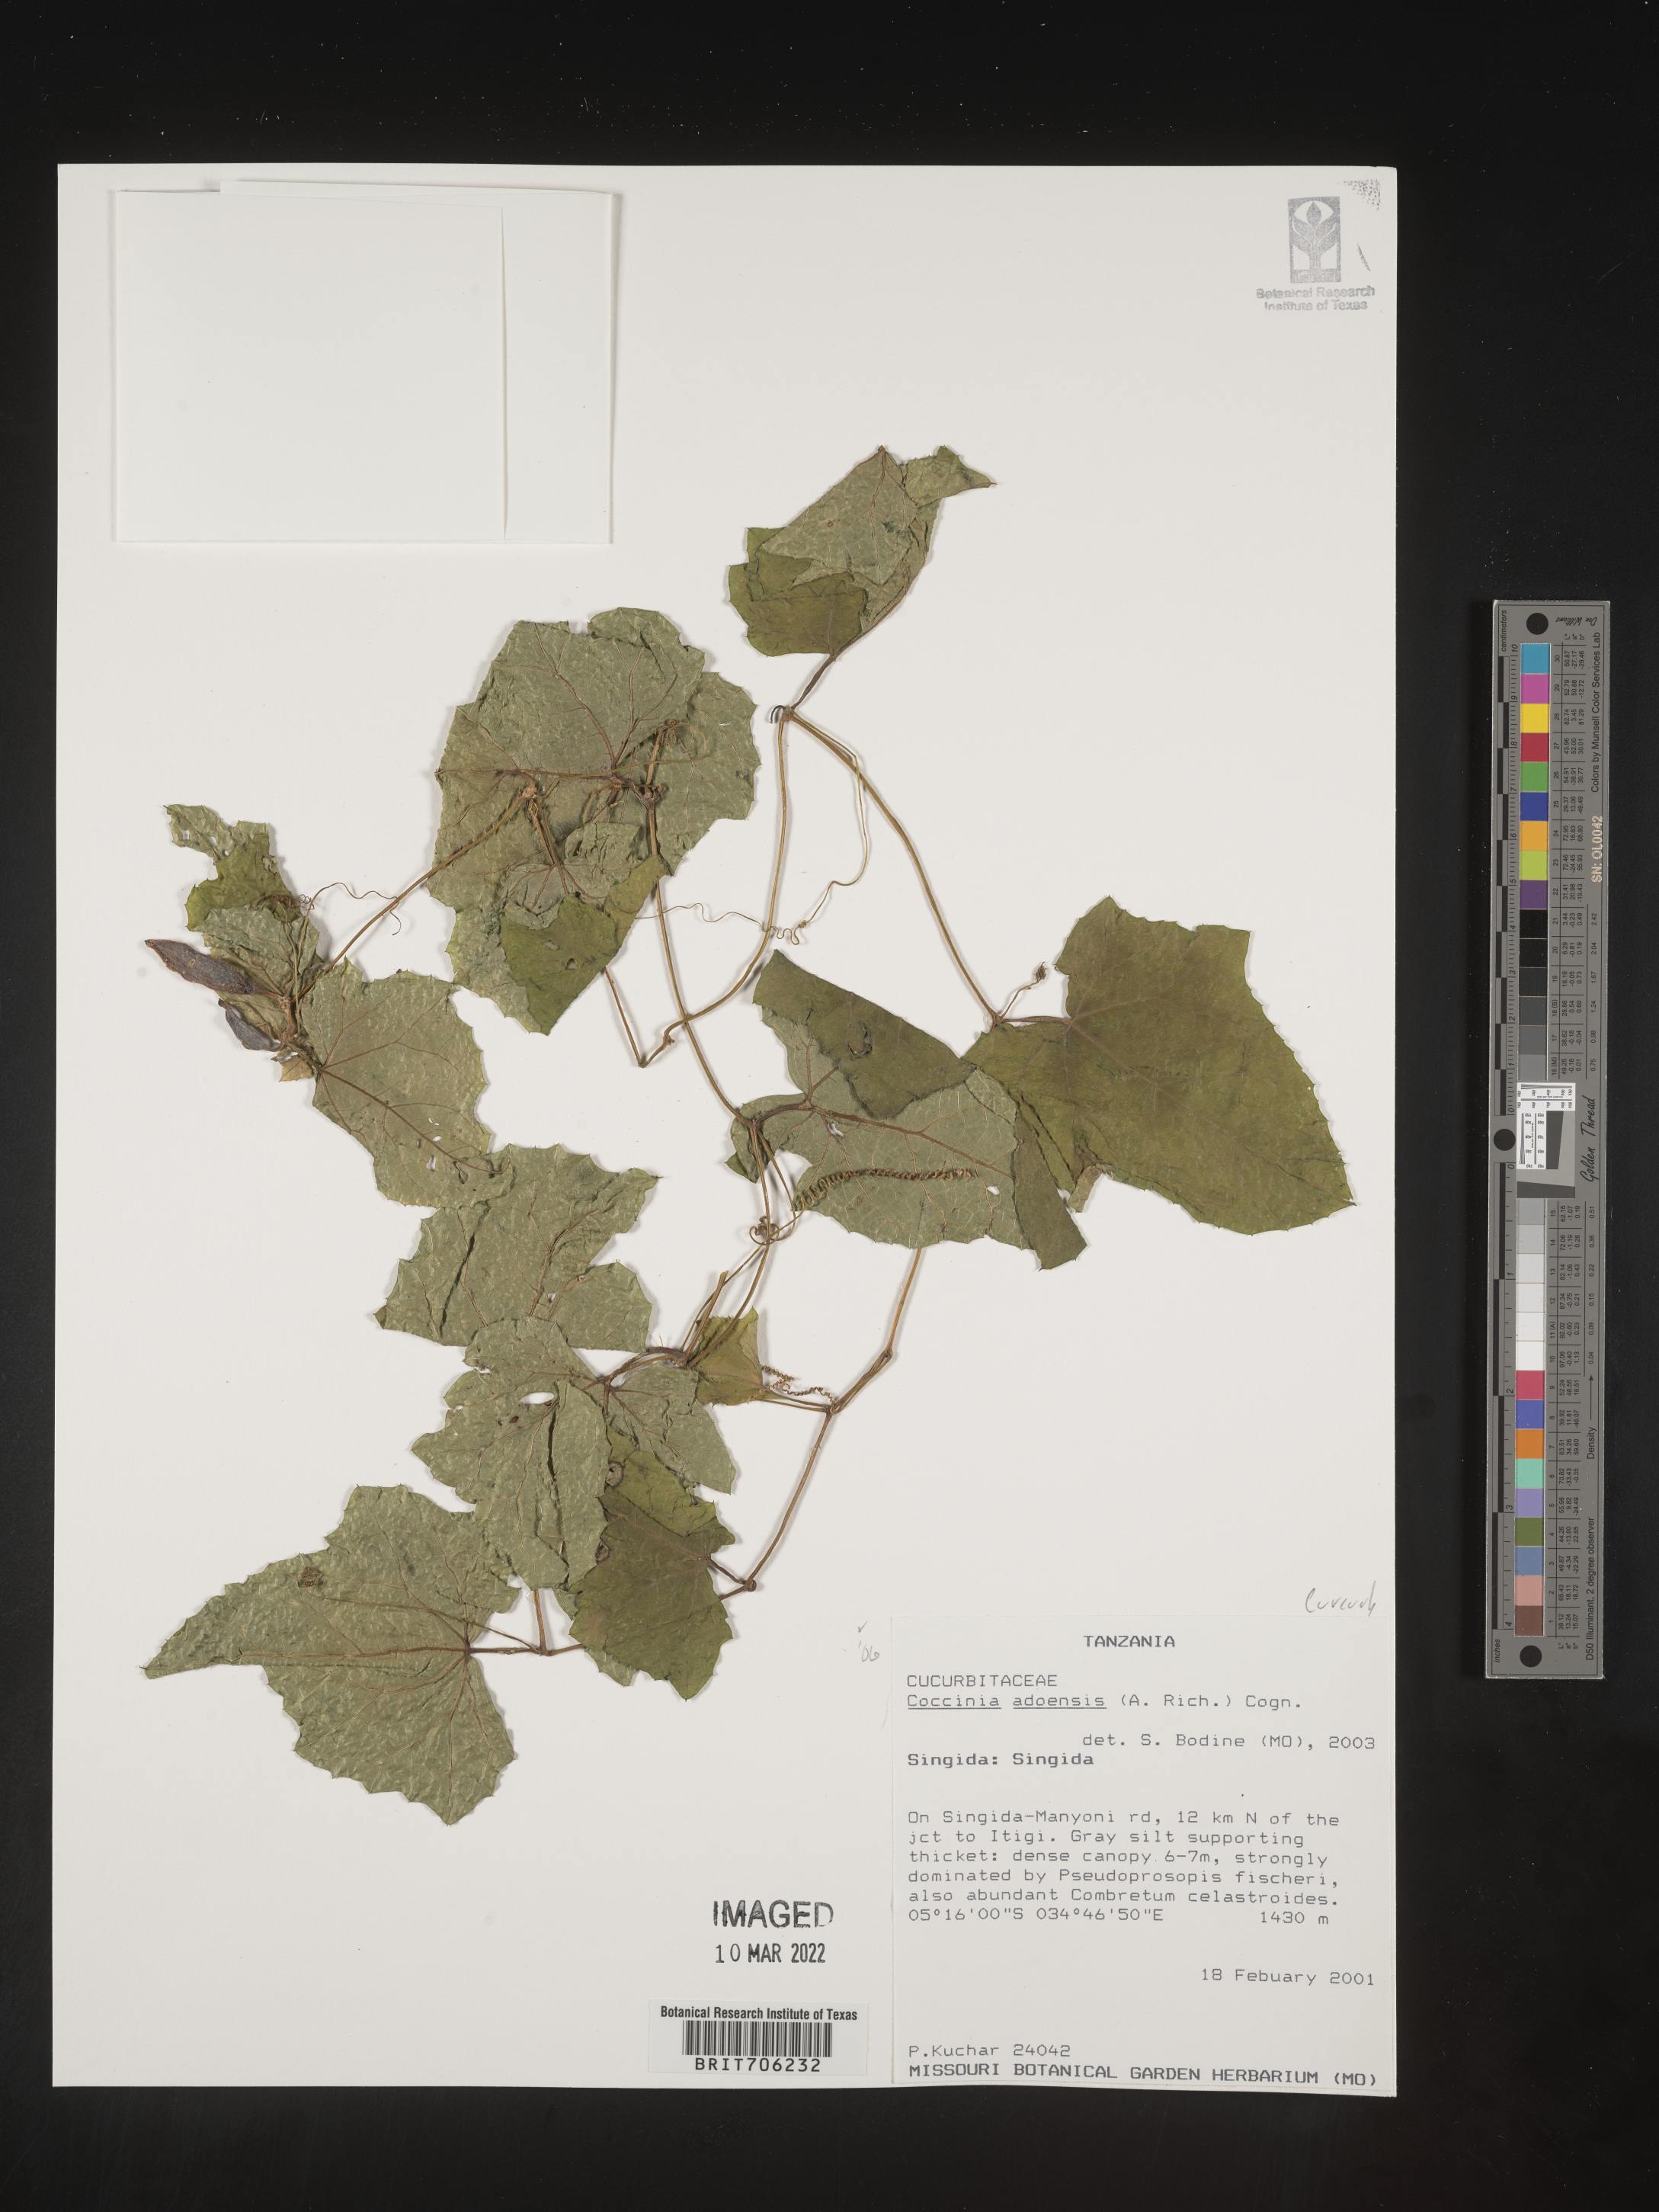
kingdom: Plantae
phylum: Tracheophyta
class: Magnoliopsida
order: Cucurbitales
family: Cucurbitaceae
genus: Coccinia
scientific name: Coccinia
